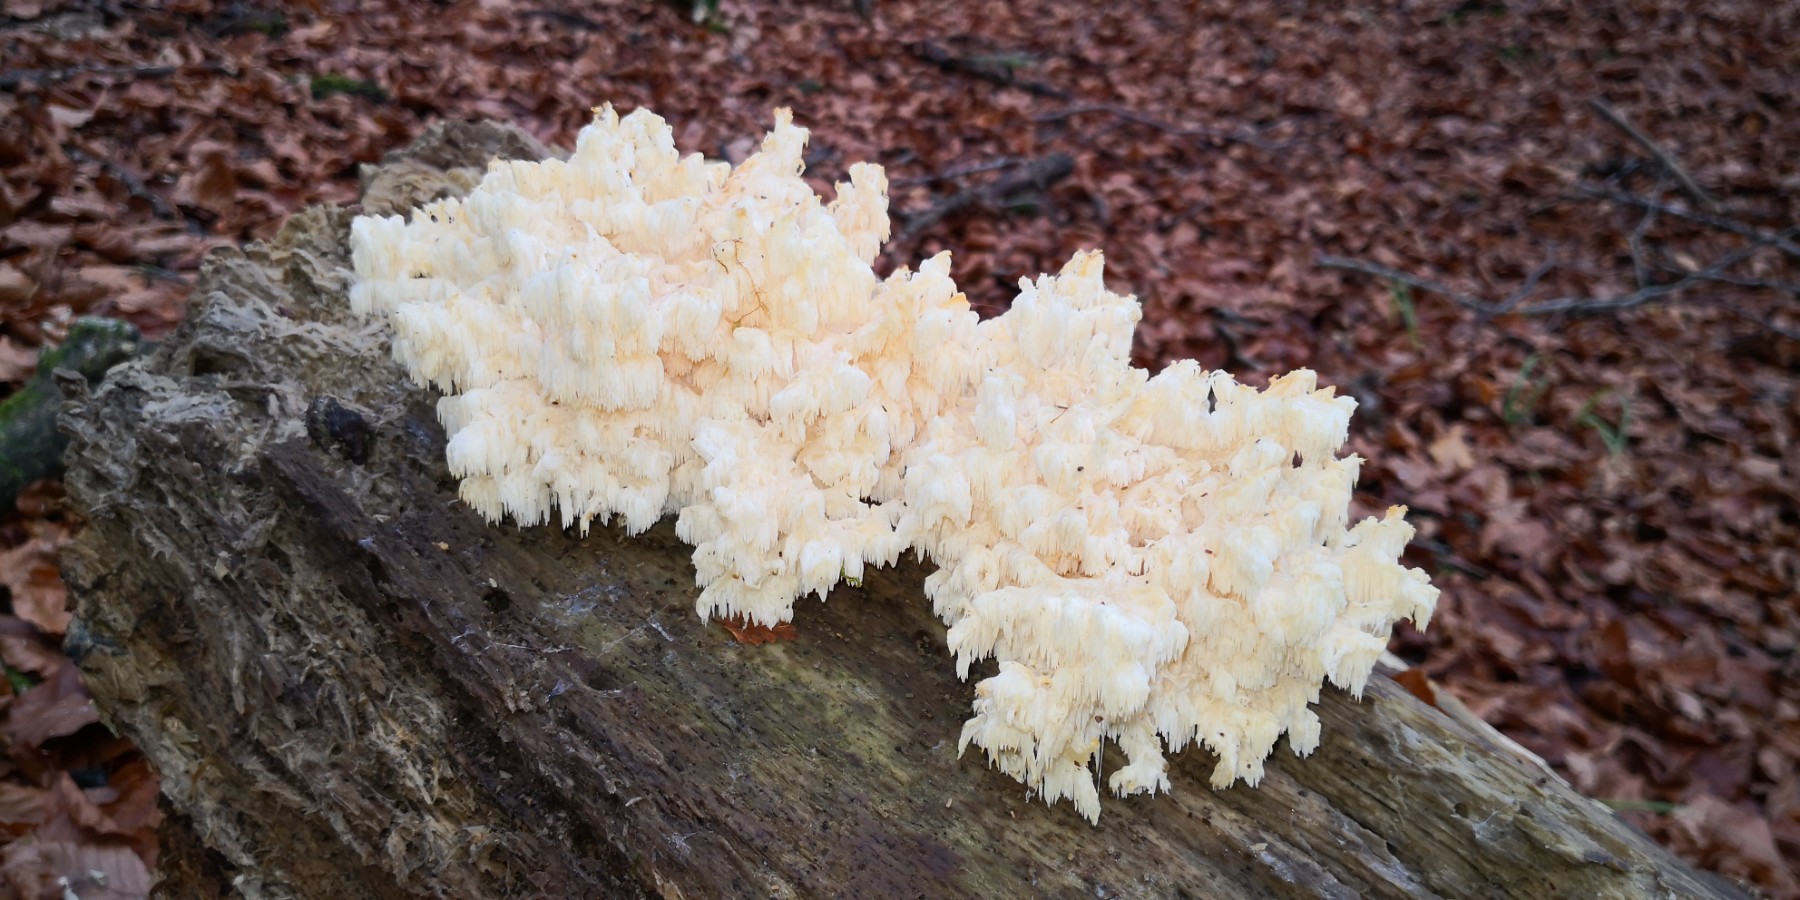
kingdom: Fungi
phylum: Basidiomycota
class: Agaricomycetes
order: Russulales
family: Hericiaceae
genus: Hericium
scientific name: Hericium coralloides
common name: koralpigsvamp
